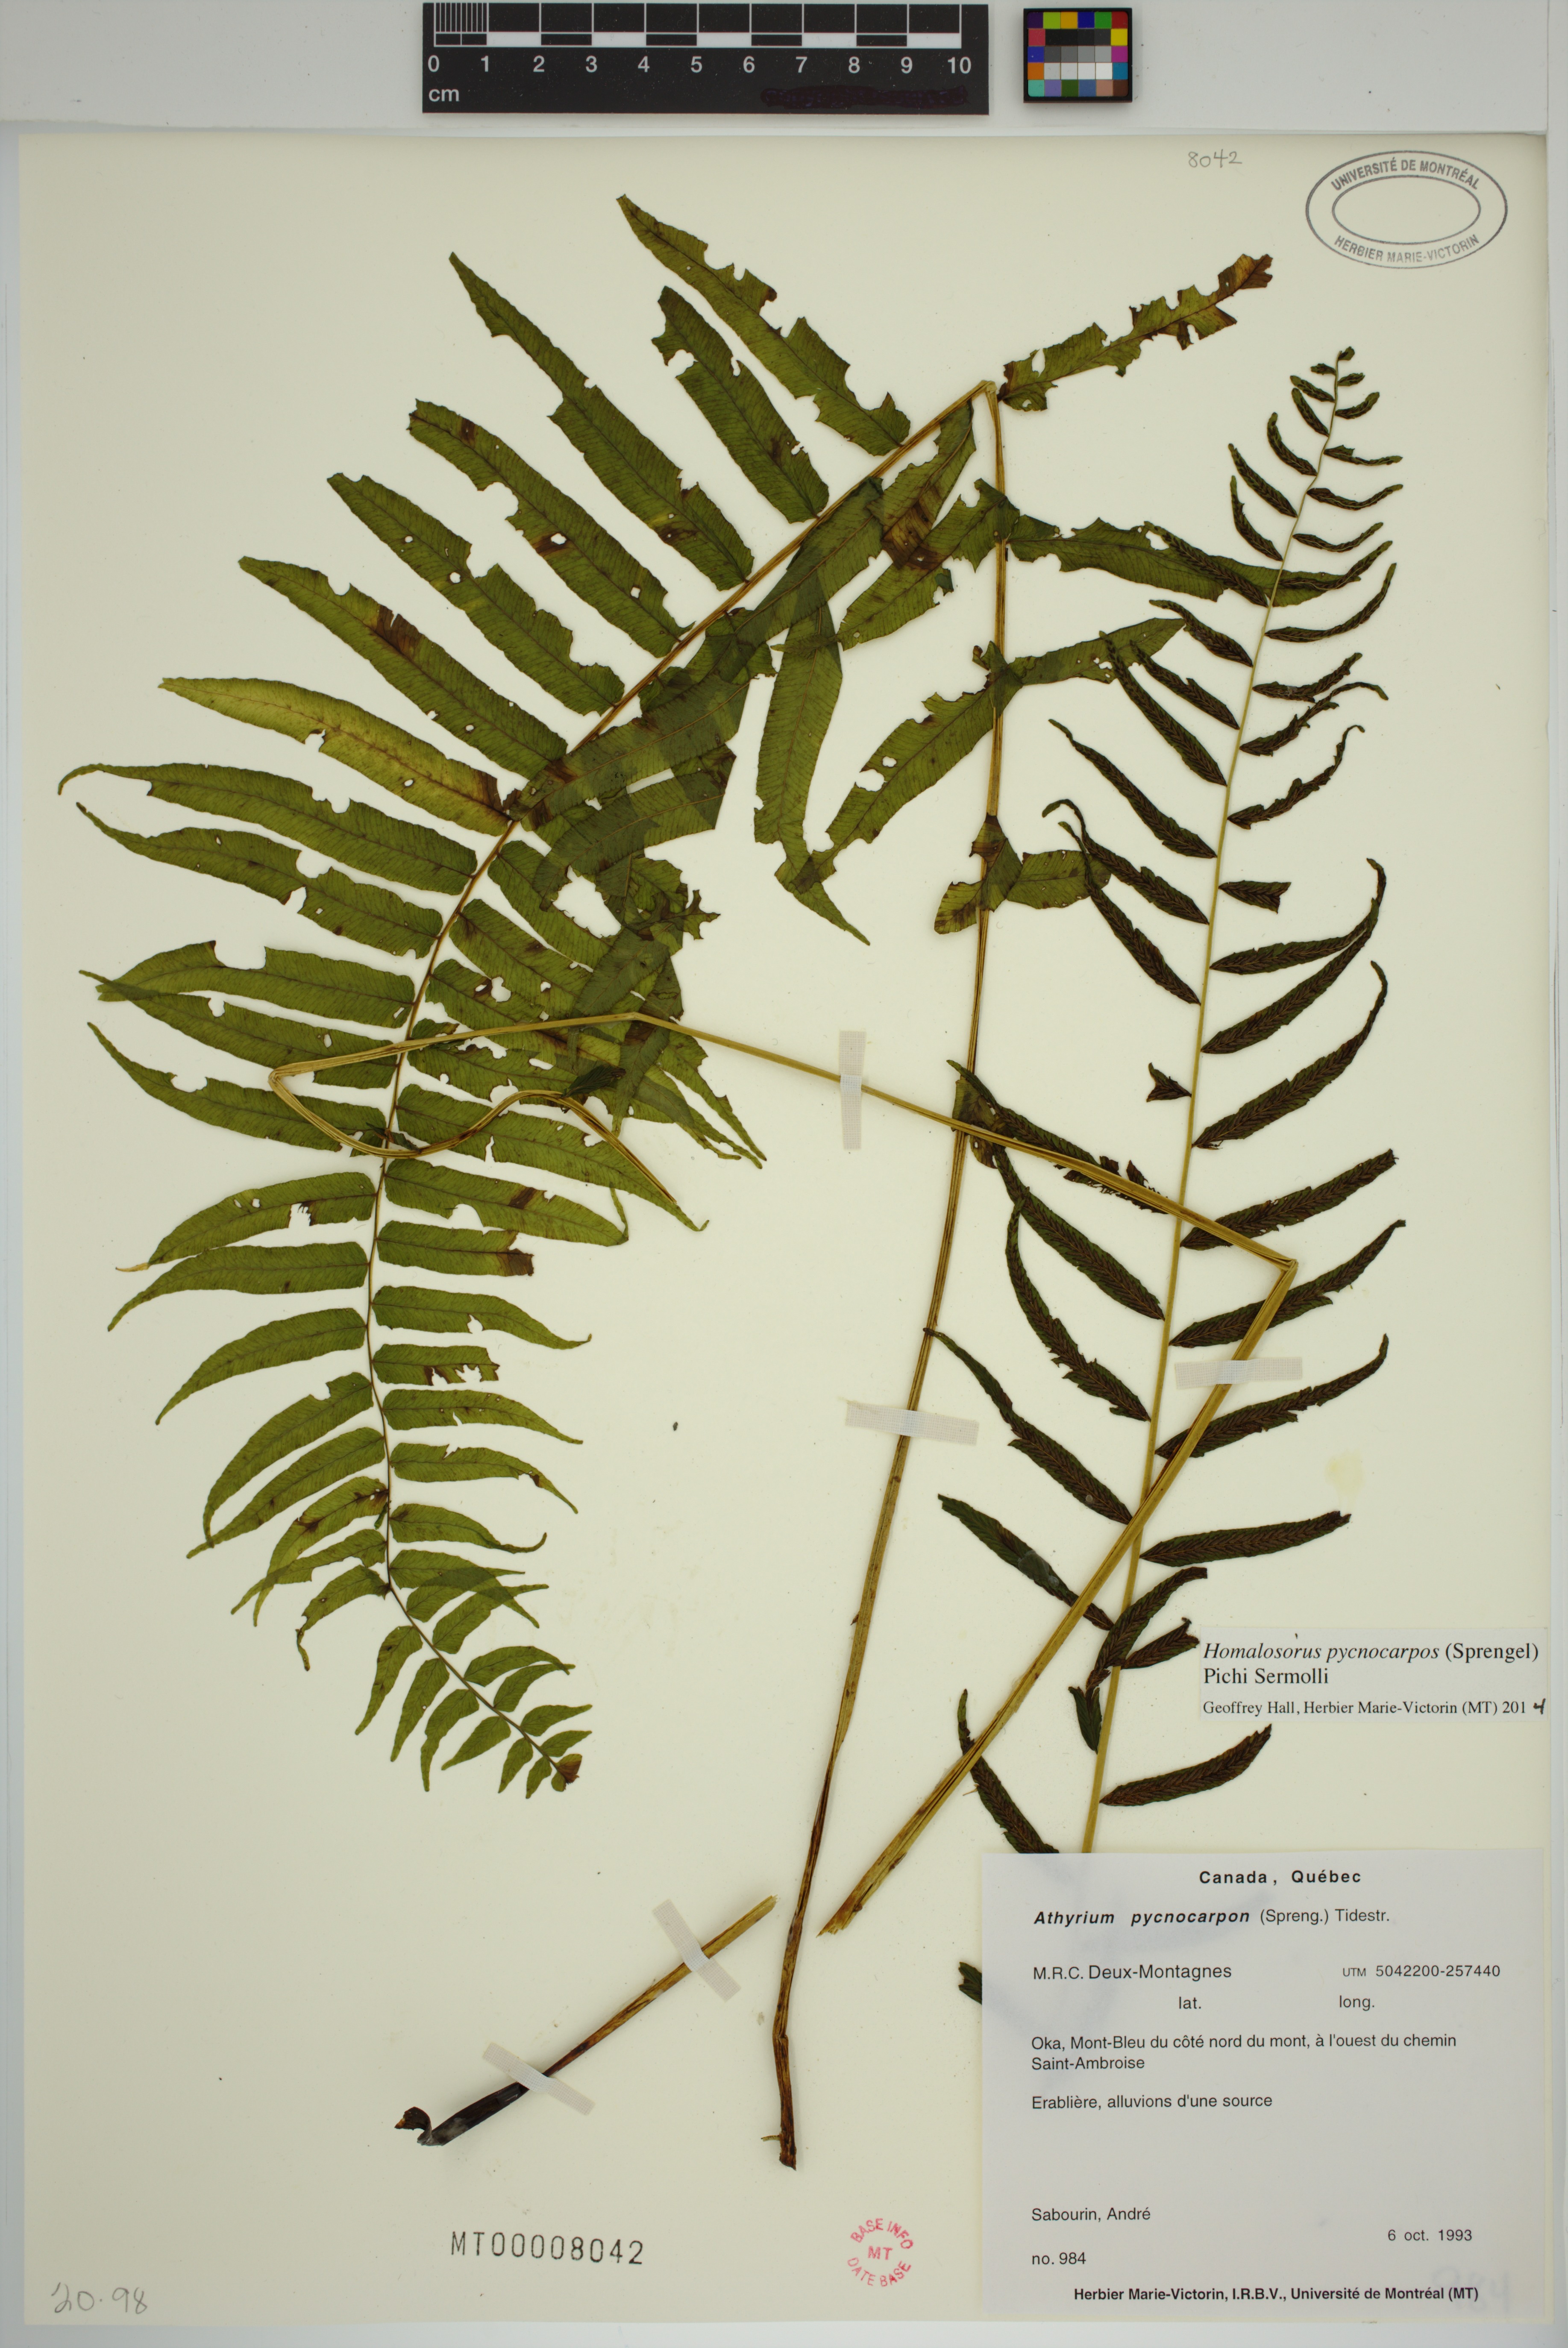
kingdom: Plantae
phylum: Tracheophyta
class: Polypodiopsida
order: Polypodiales
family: Diplaziopsidaceae
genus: Homalosorus
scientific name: Homalosorus pycnocarpos
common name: Glade fern
